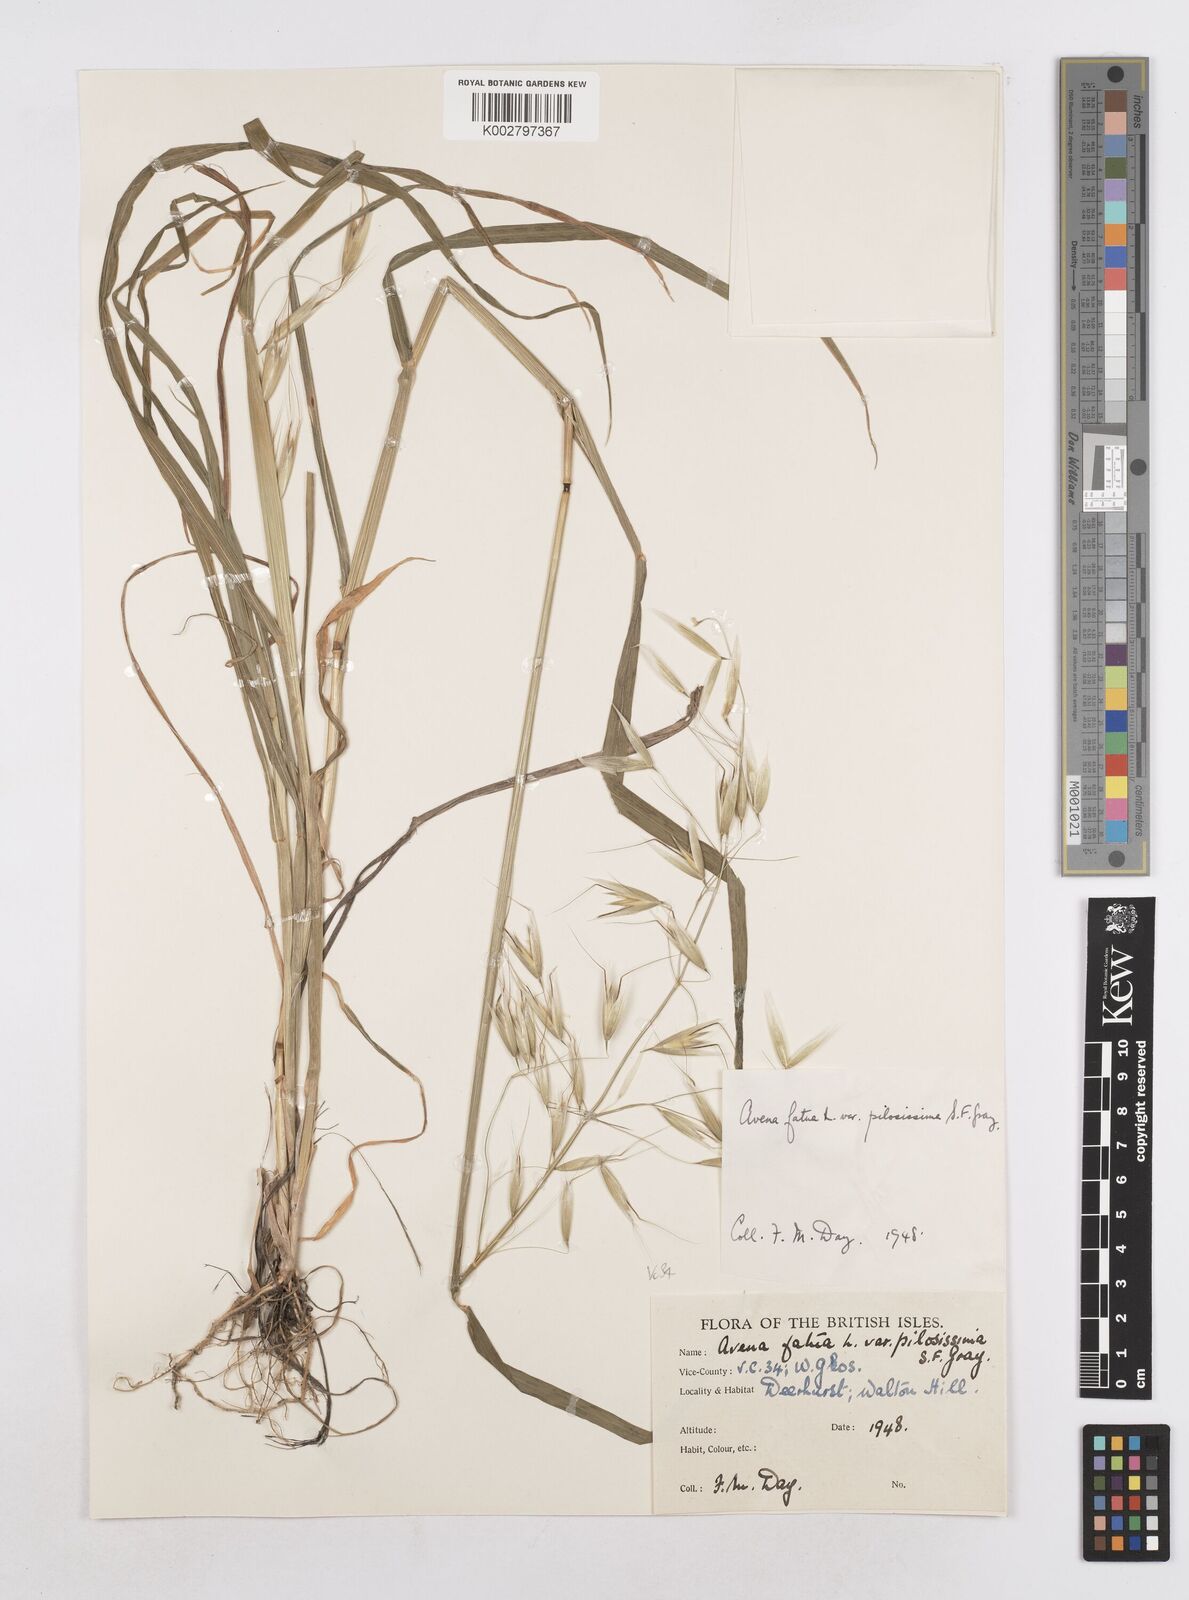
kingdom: Plantae
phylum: Tracheophyta
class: Liliopsida
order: Poales
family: Poaceae
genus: Avena
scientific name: Avena fatua
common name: Wild oat
